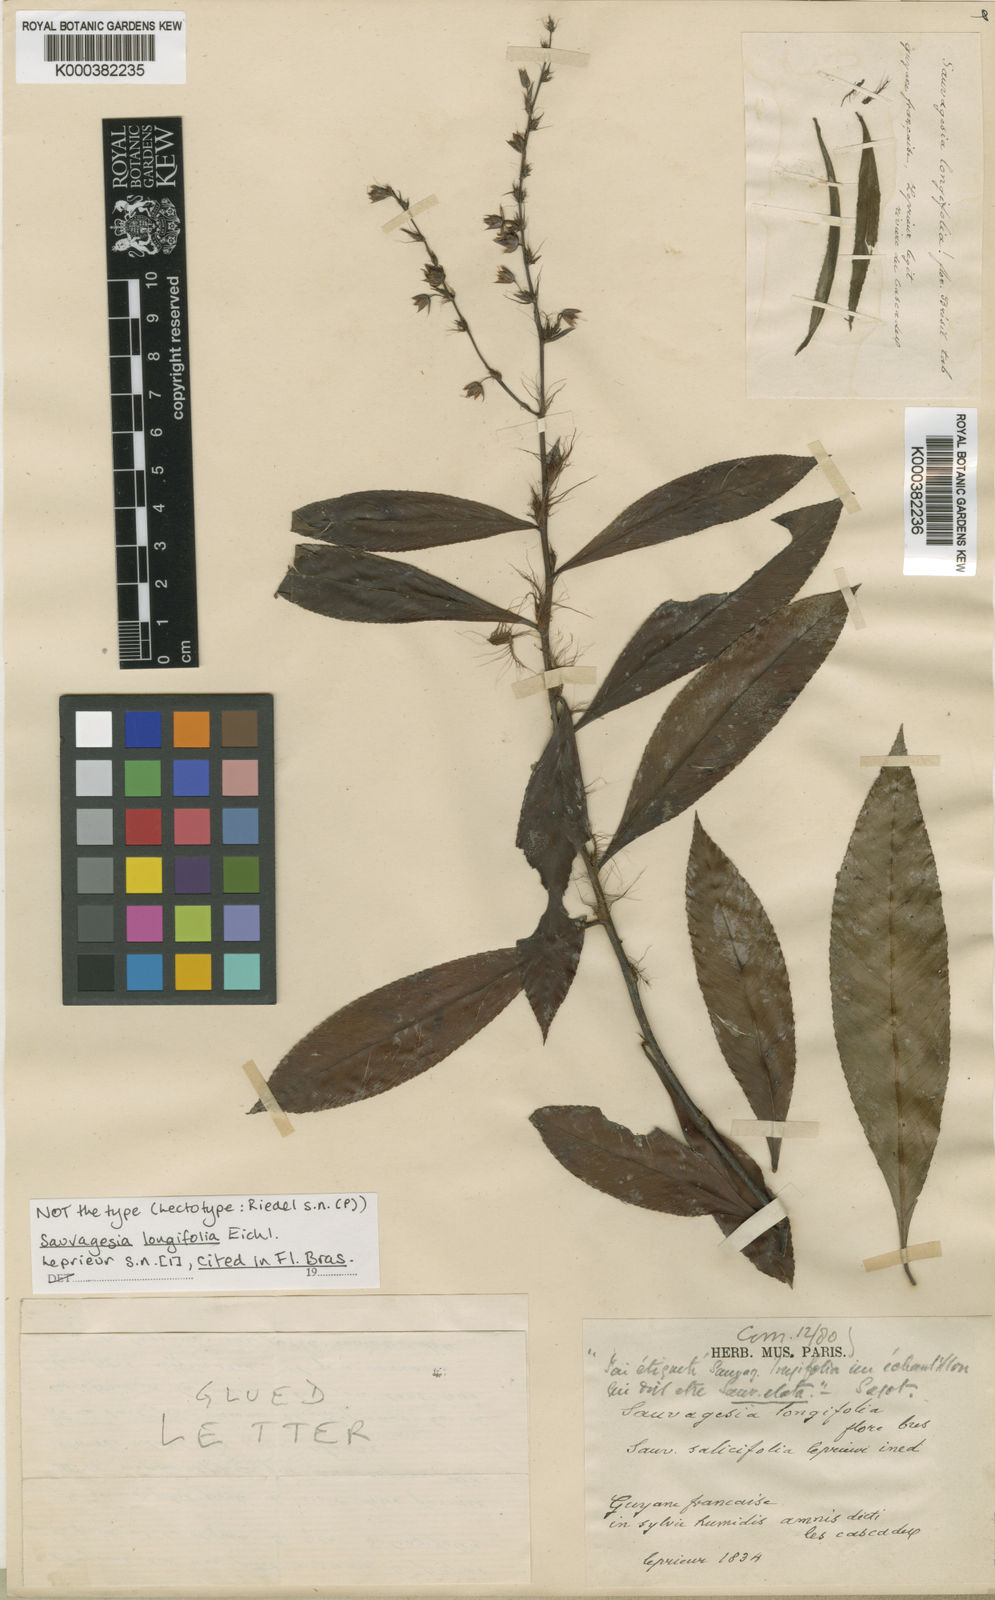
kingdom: Plantae
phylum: Tracheophyta
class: Magnoliopsida
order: Malpighiales
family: Ochnaceae
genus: Sauvagesia
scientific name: Sauvagesia longifolia
